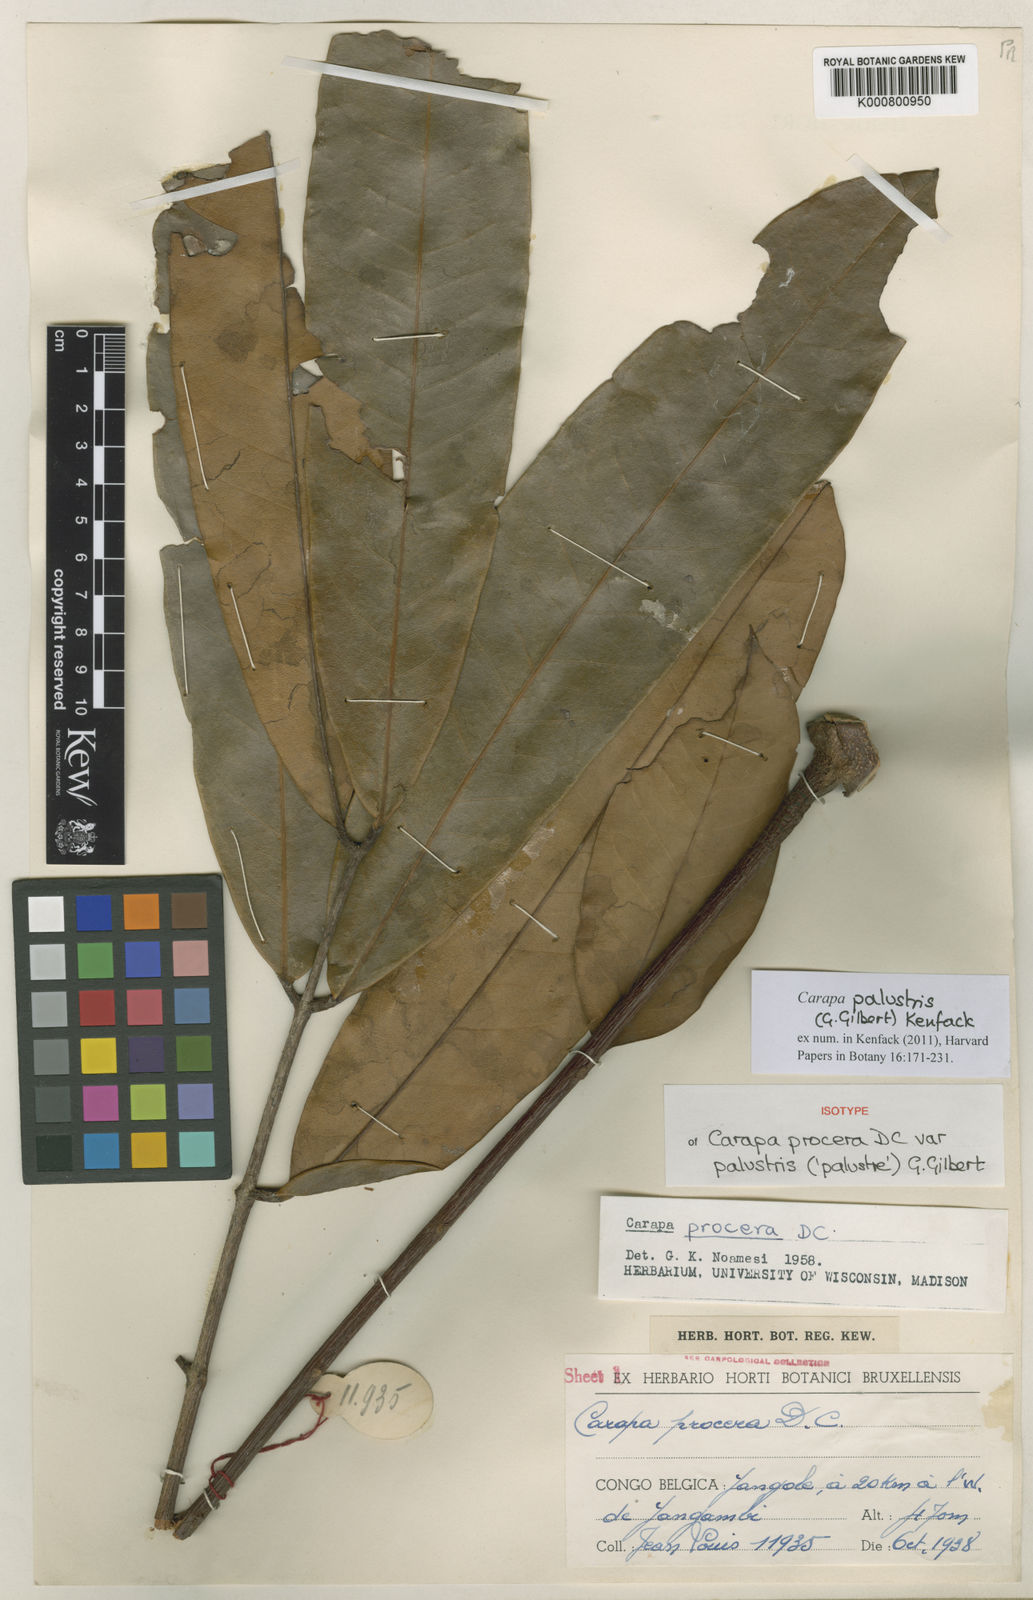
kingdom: Plantae
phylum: Tracheophyta
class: Magnoliopsida
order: Sapindales
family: Meliaceae
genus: Carapa
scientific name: Carapa hygrophila
